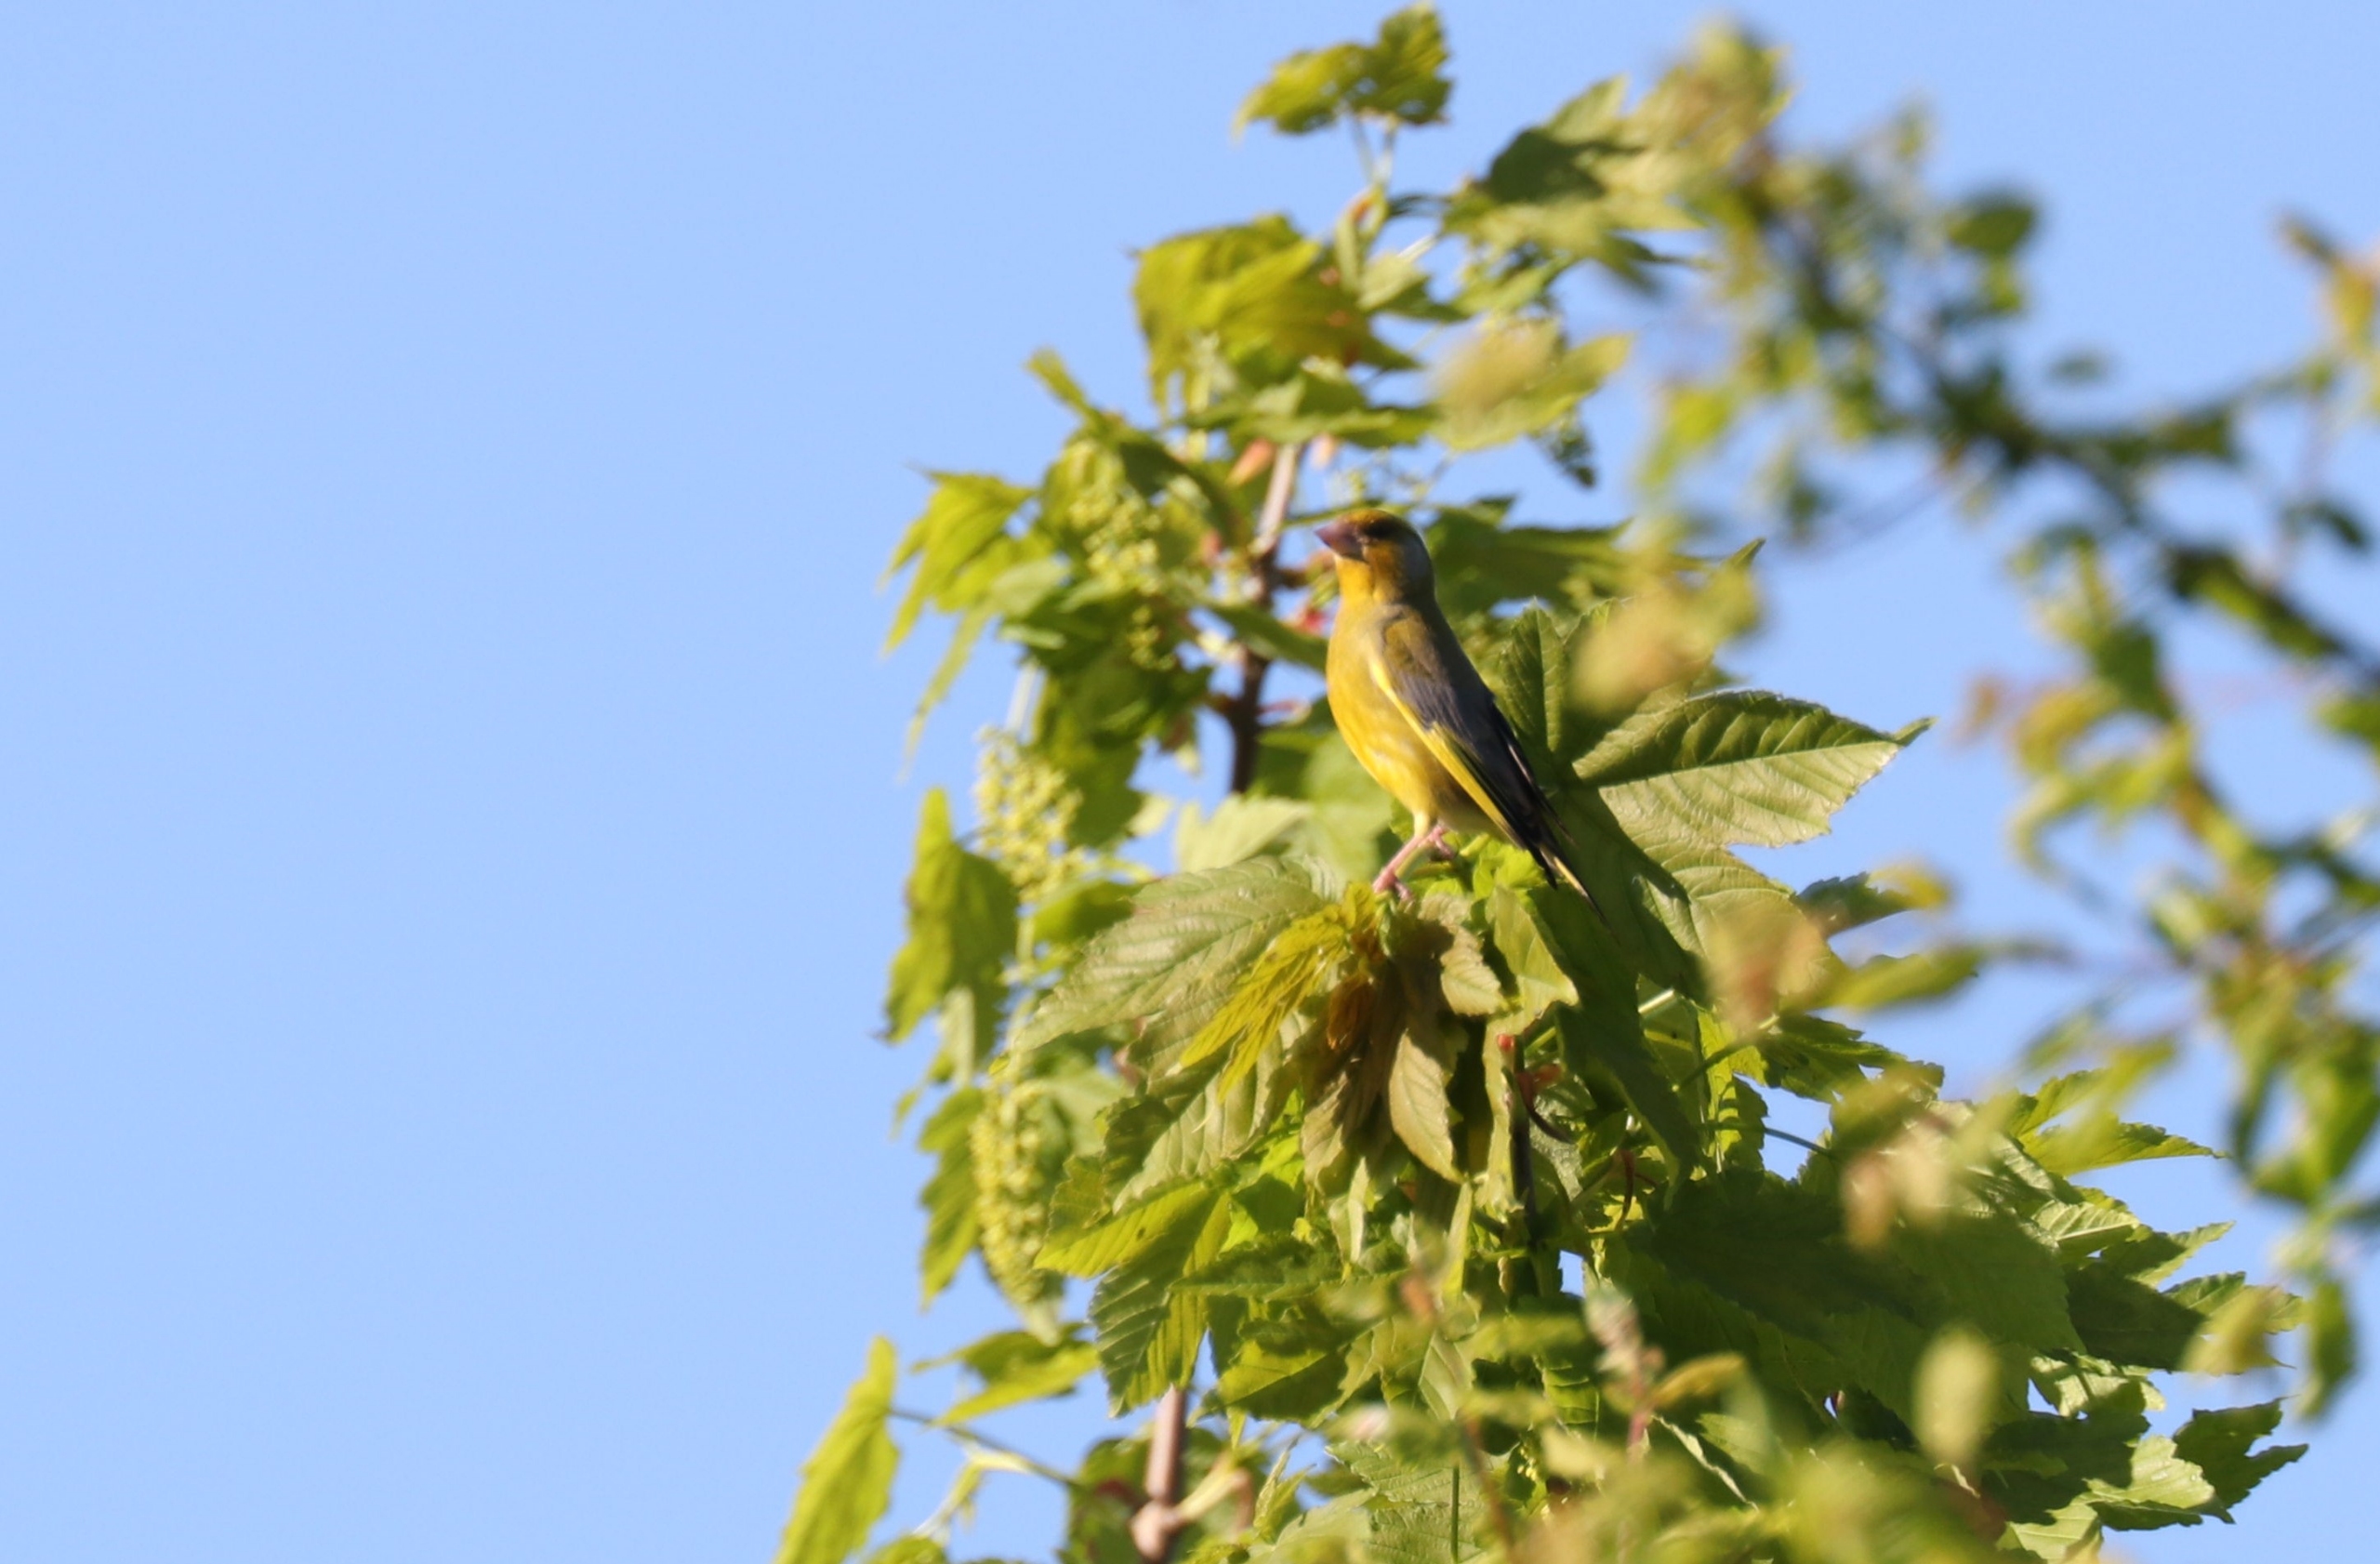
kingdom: Plantae
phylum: Tracheophyta
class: Liliopsida
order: Poales
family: Poaceae
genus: Chloris
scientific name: Chloris chloris
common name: Grønirisk
